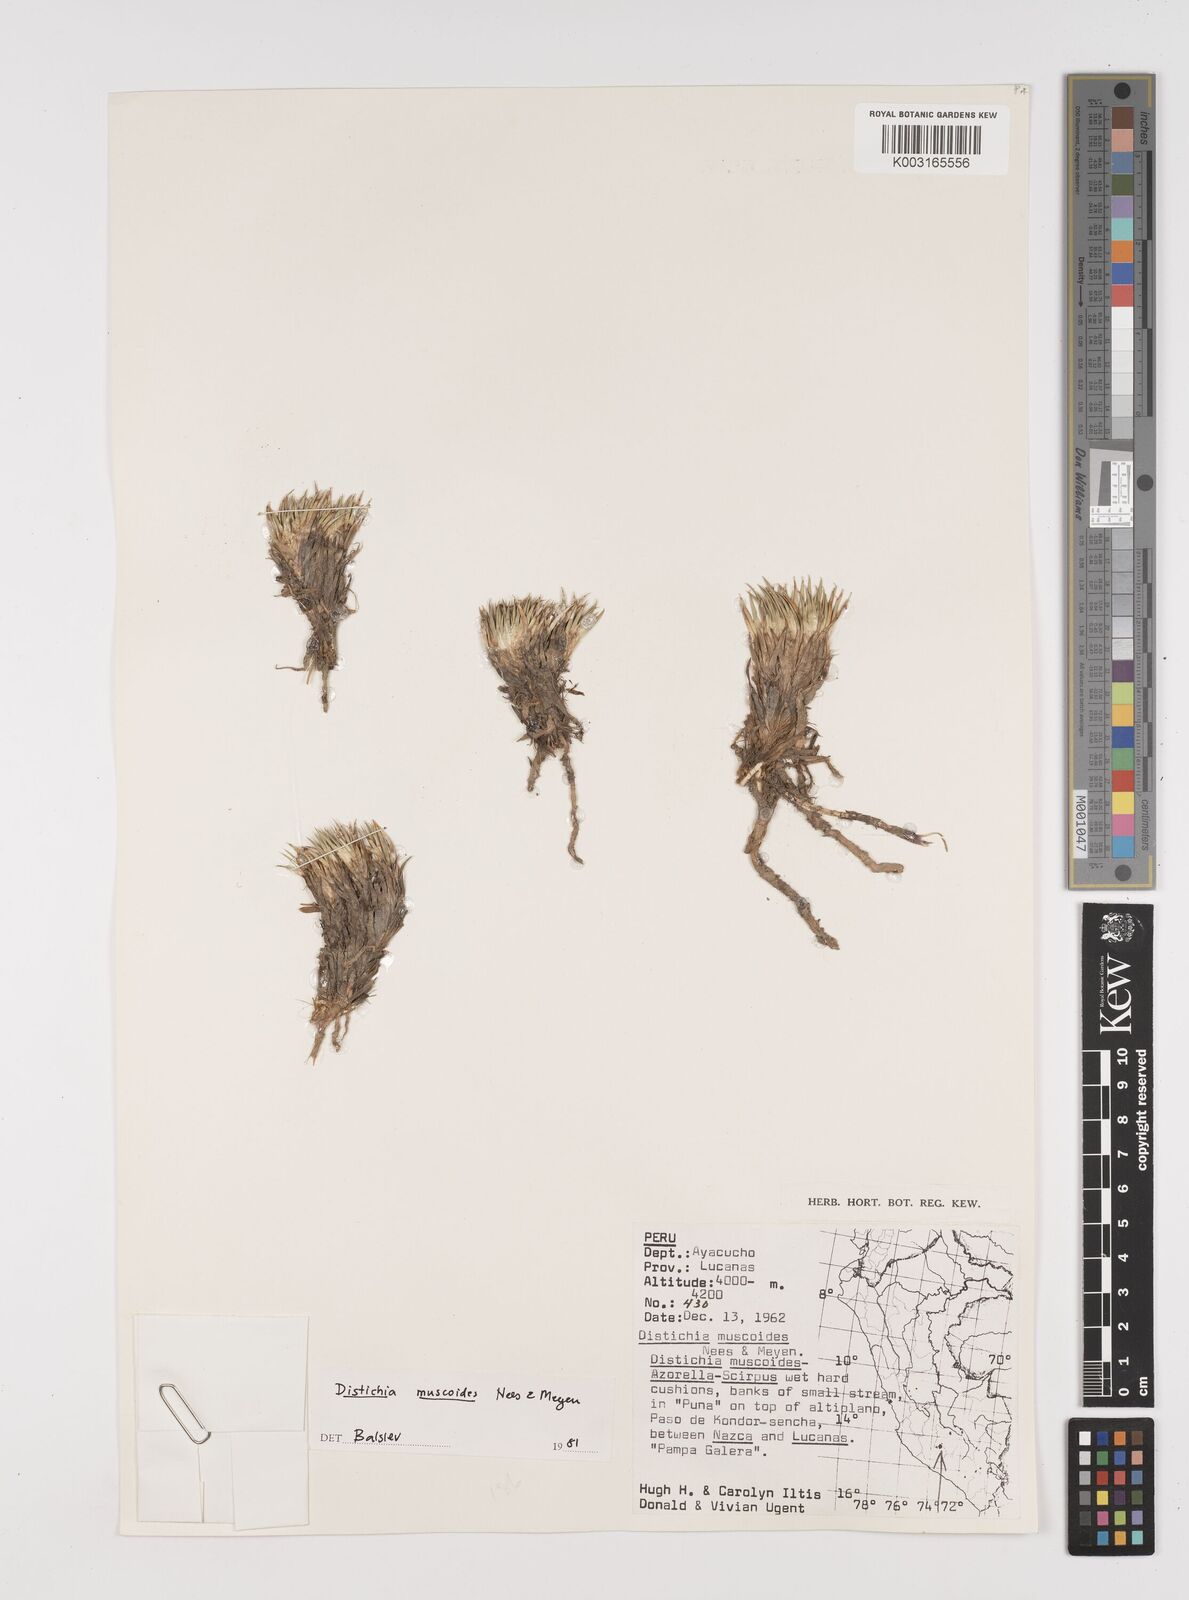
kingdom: Plantae
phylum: Tracheophyta
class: Liliopsida
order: Poales
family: Juncaceae
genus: Distichia
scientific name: Distichia muscoides
